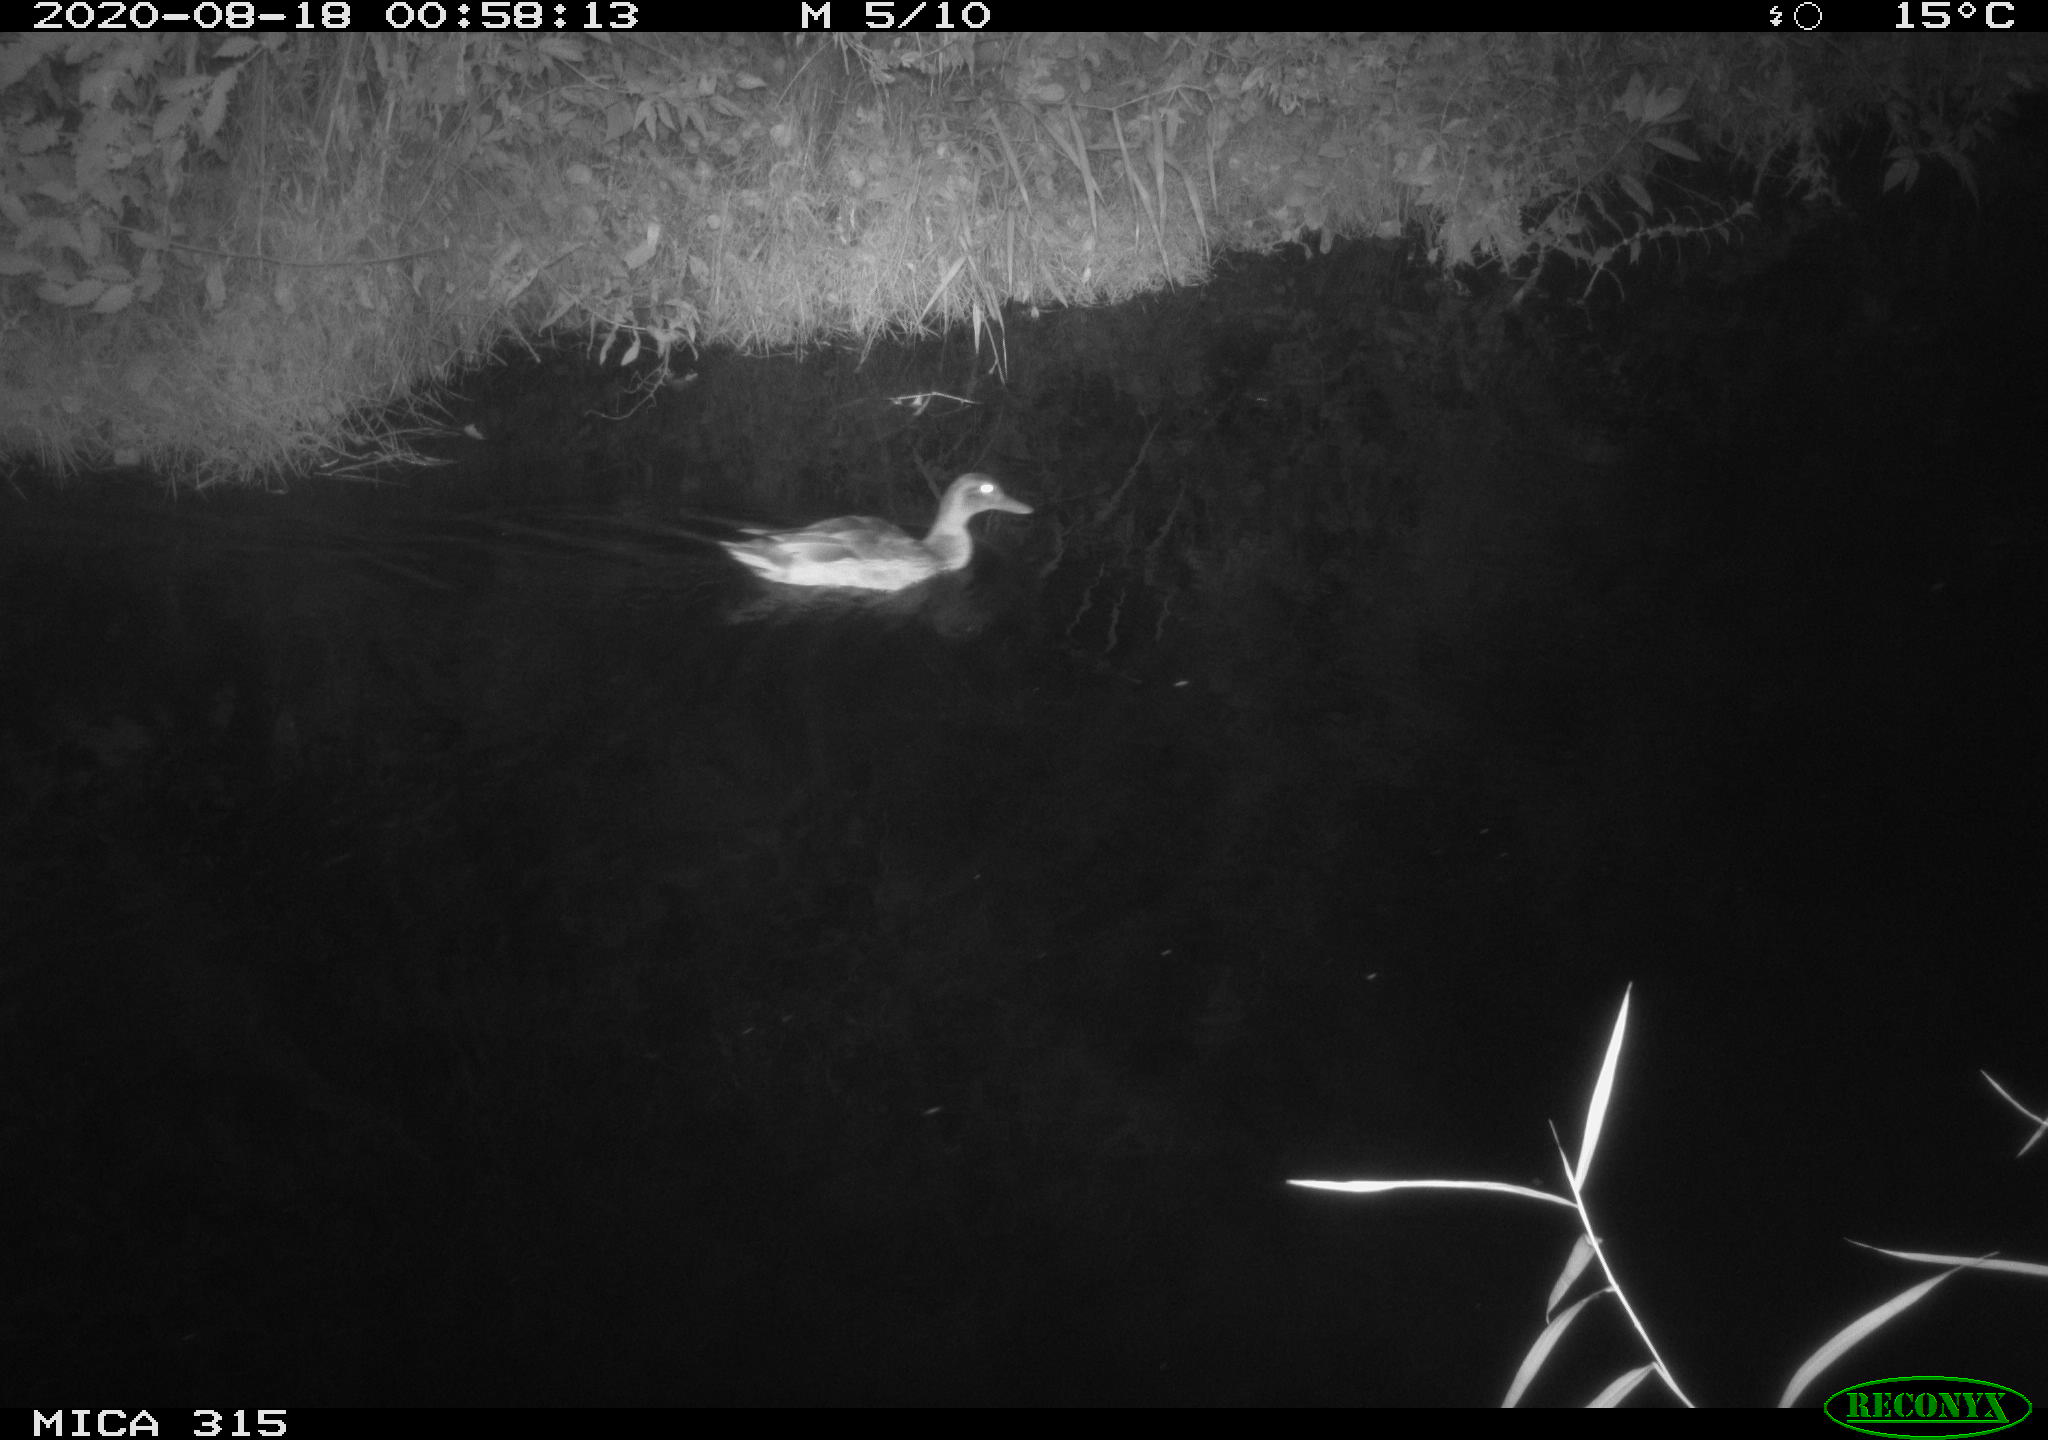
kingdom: Animalia
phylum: Chordata
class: Aves
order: Anseriformes
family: Anatidae
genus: Anas
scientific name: Anas platyrhynchos
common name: Mallard
